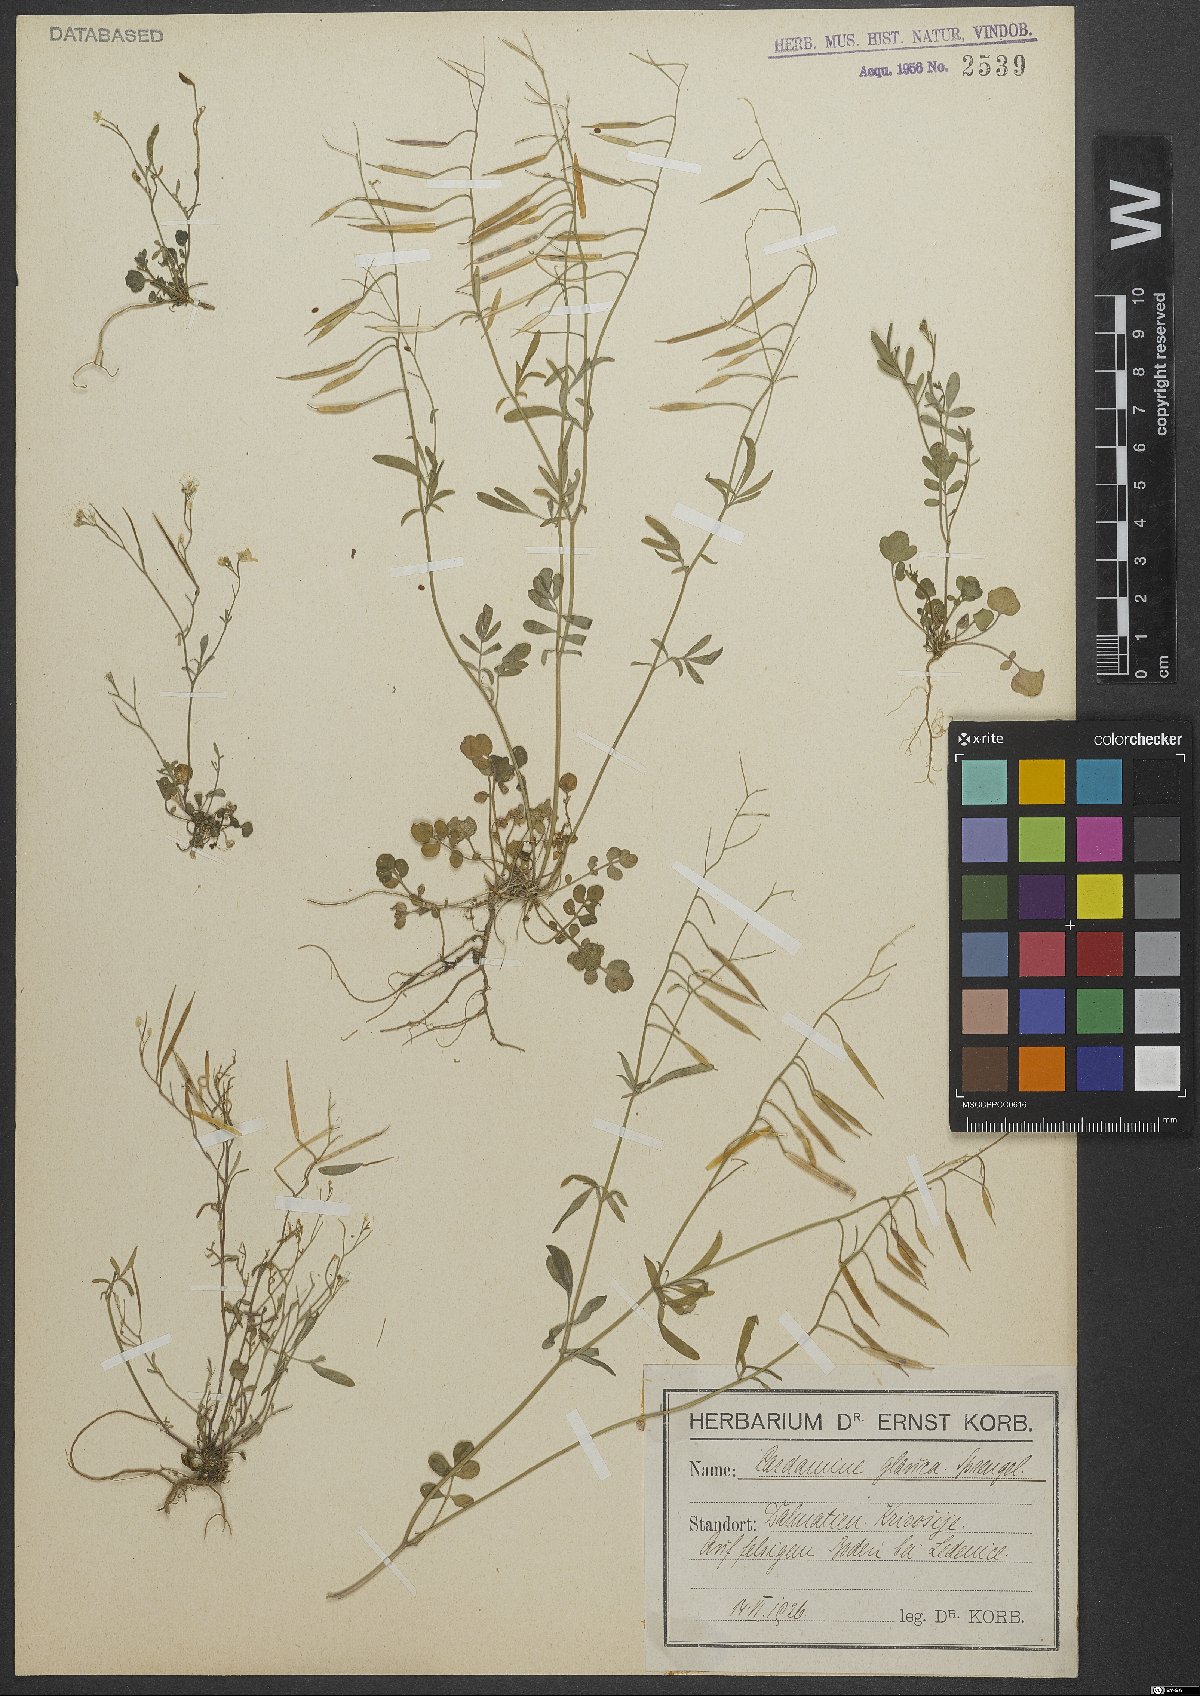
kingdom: Plantae
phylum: Tracheophyta
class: Magnoliopsida
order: Brassicales
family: Brassicaceae
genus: Cardamine
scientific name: Cardamine glauca
